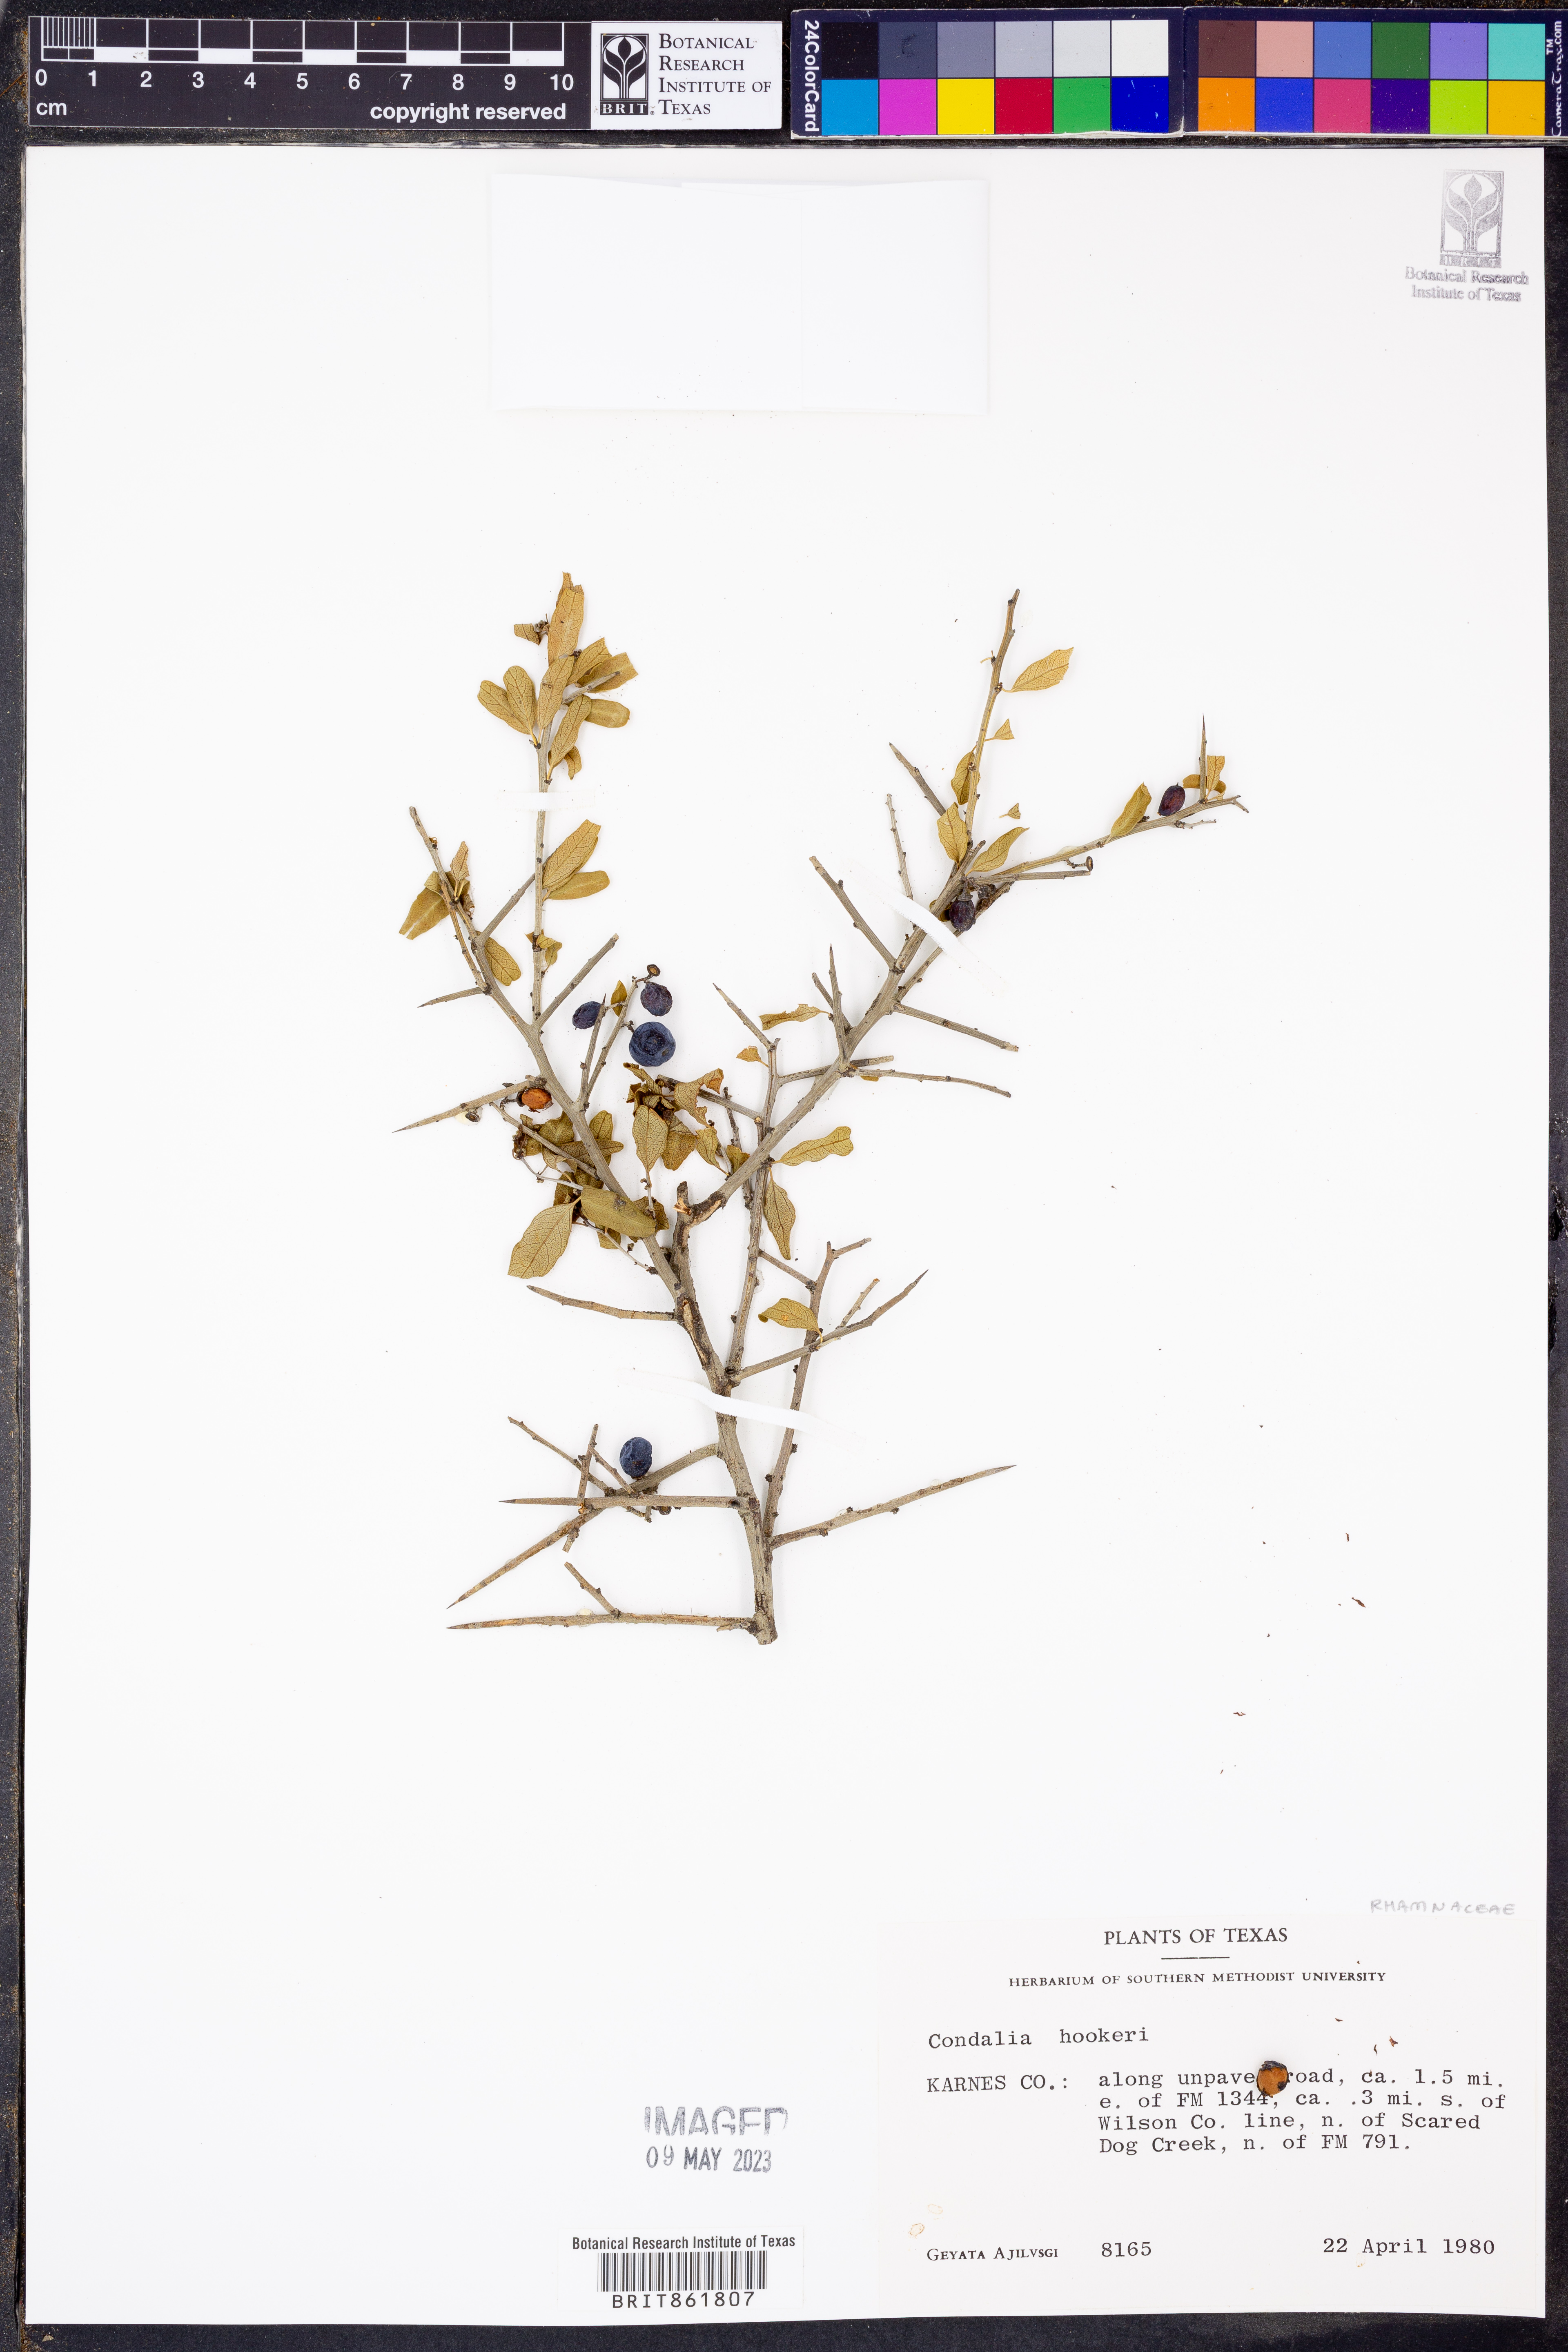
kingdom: Plantae
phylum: Tracheophyta
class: Magnoliopsida
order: Rosales
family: Rhamnaceae
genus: Condalia
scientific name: Condalia hookeri
